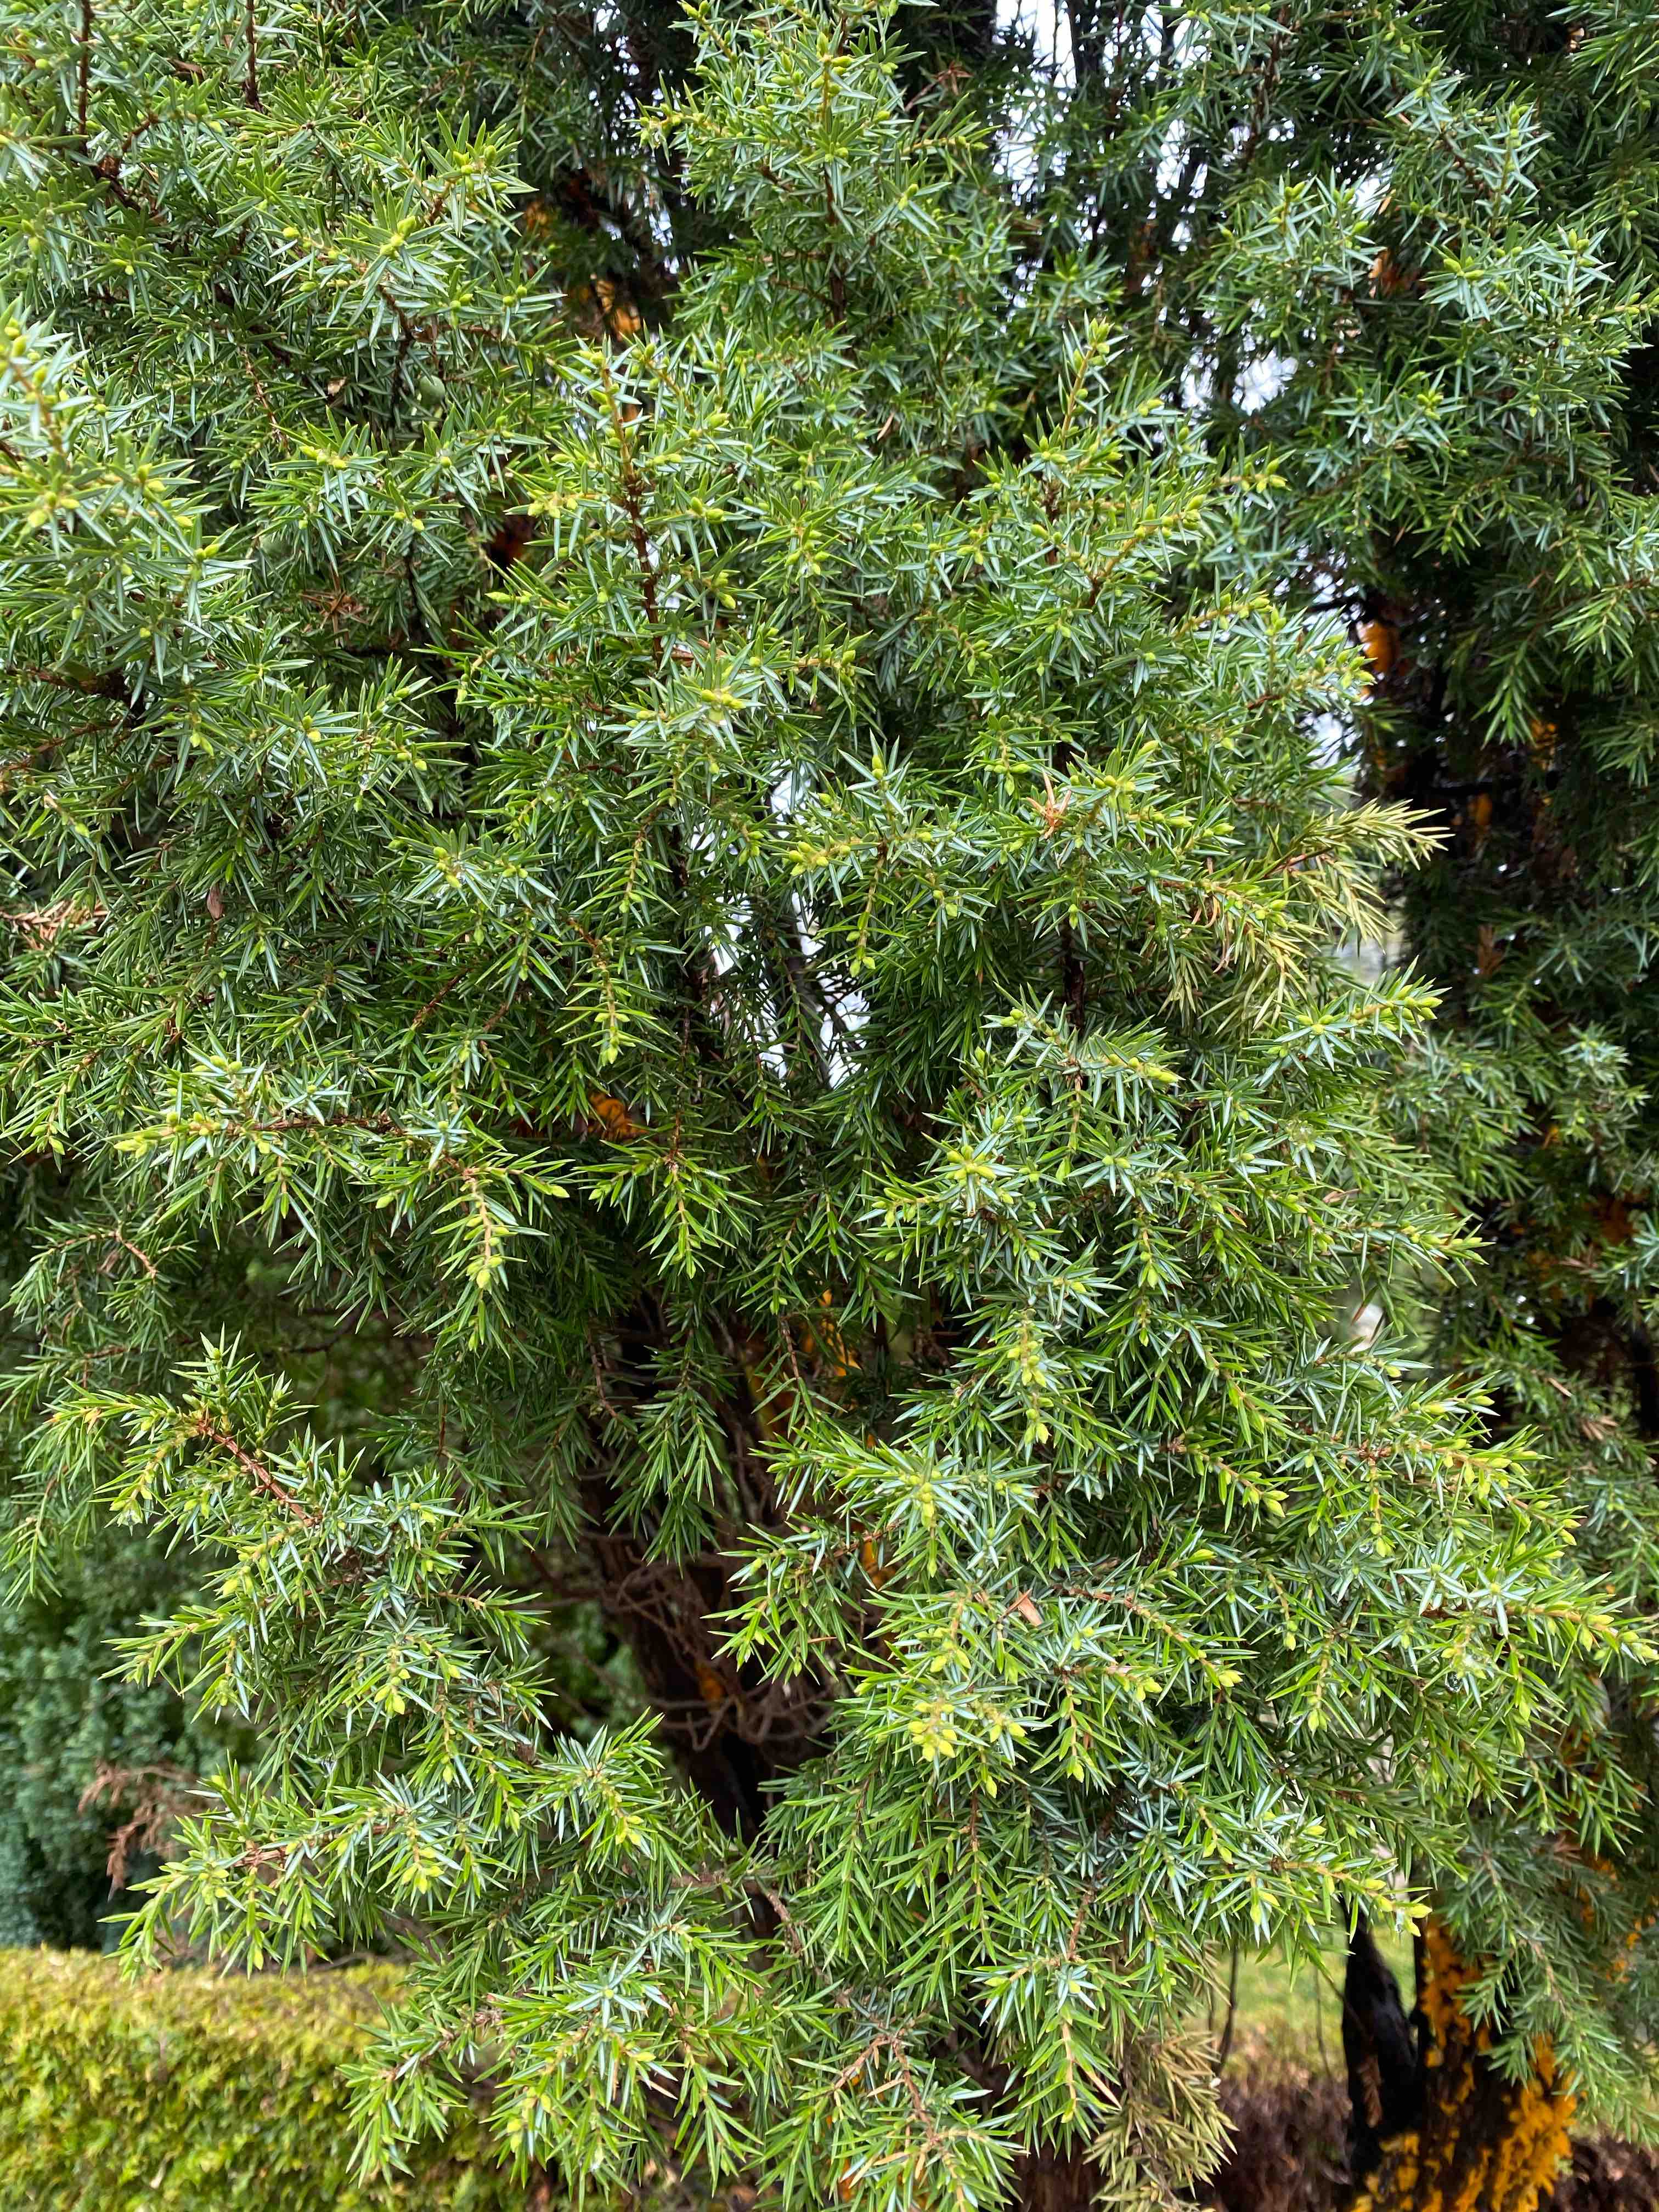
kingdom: Fungi
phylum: Basidiomycota
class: Pucciniomycetes
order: Pucciniales
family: Gymnosporangiaceae
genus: Gymnosporangium
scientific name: Gymnosporangium clavariiforme
